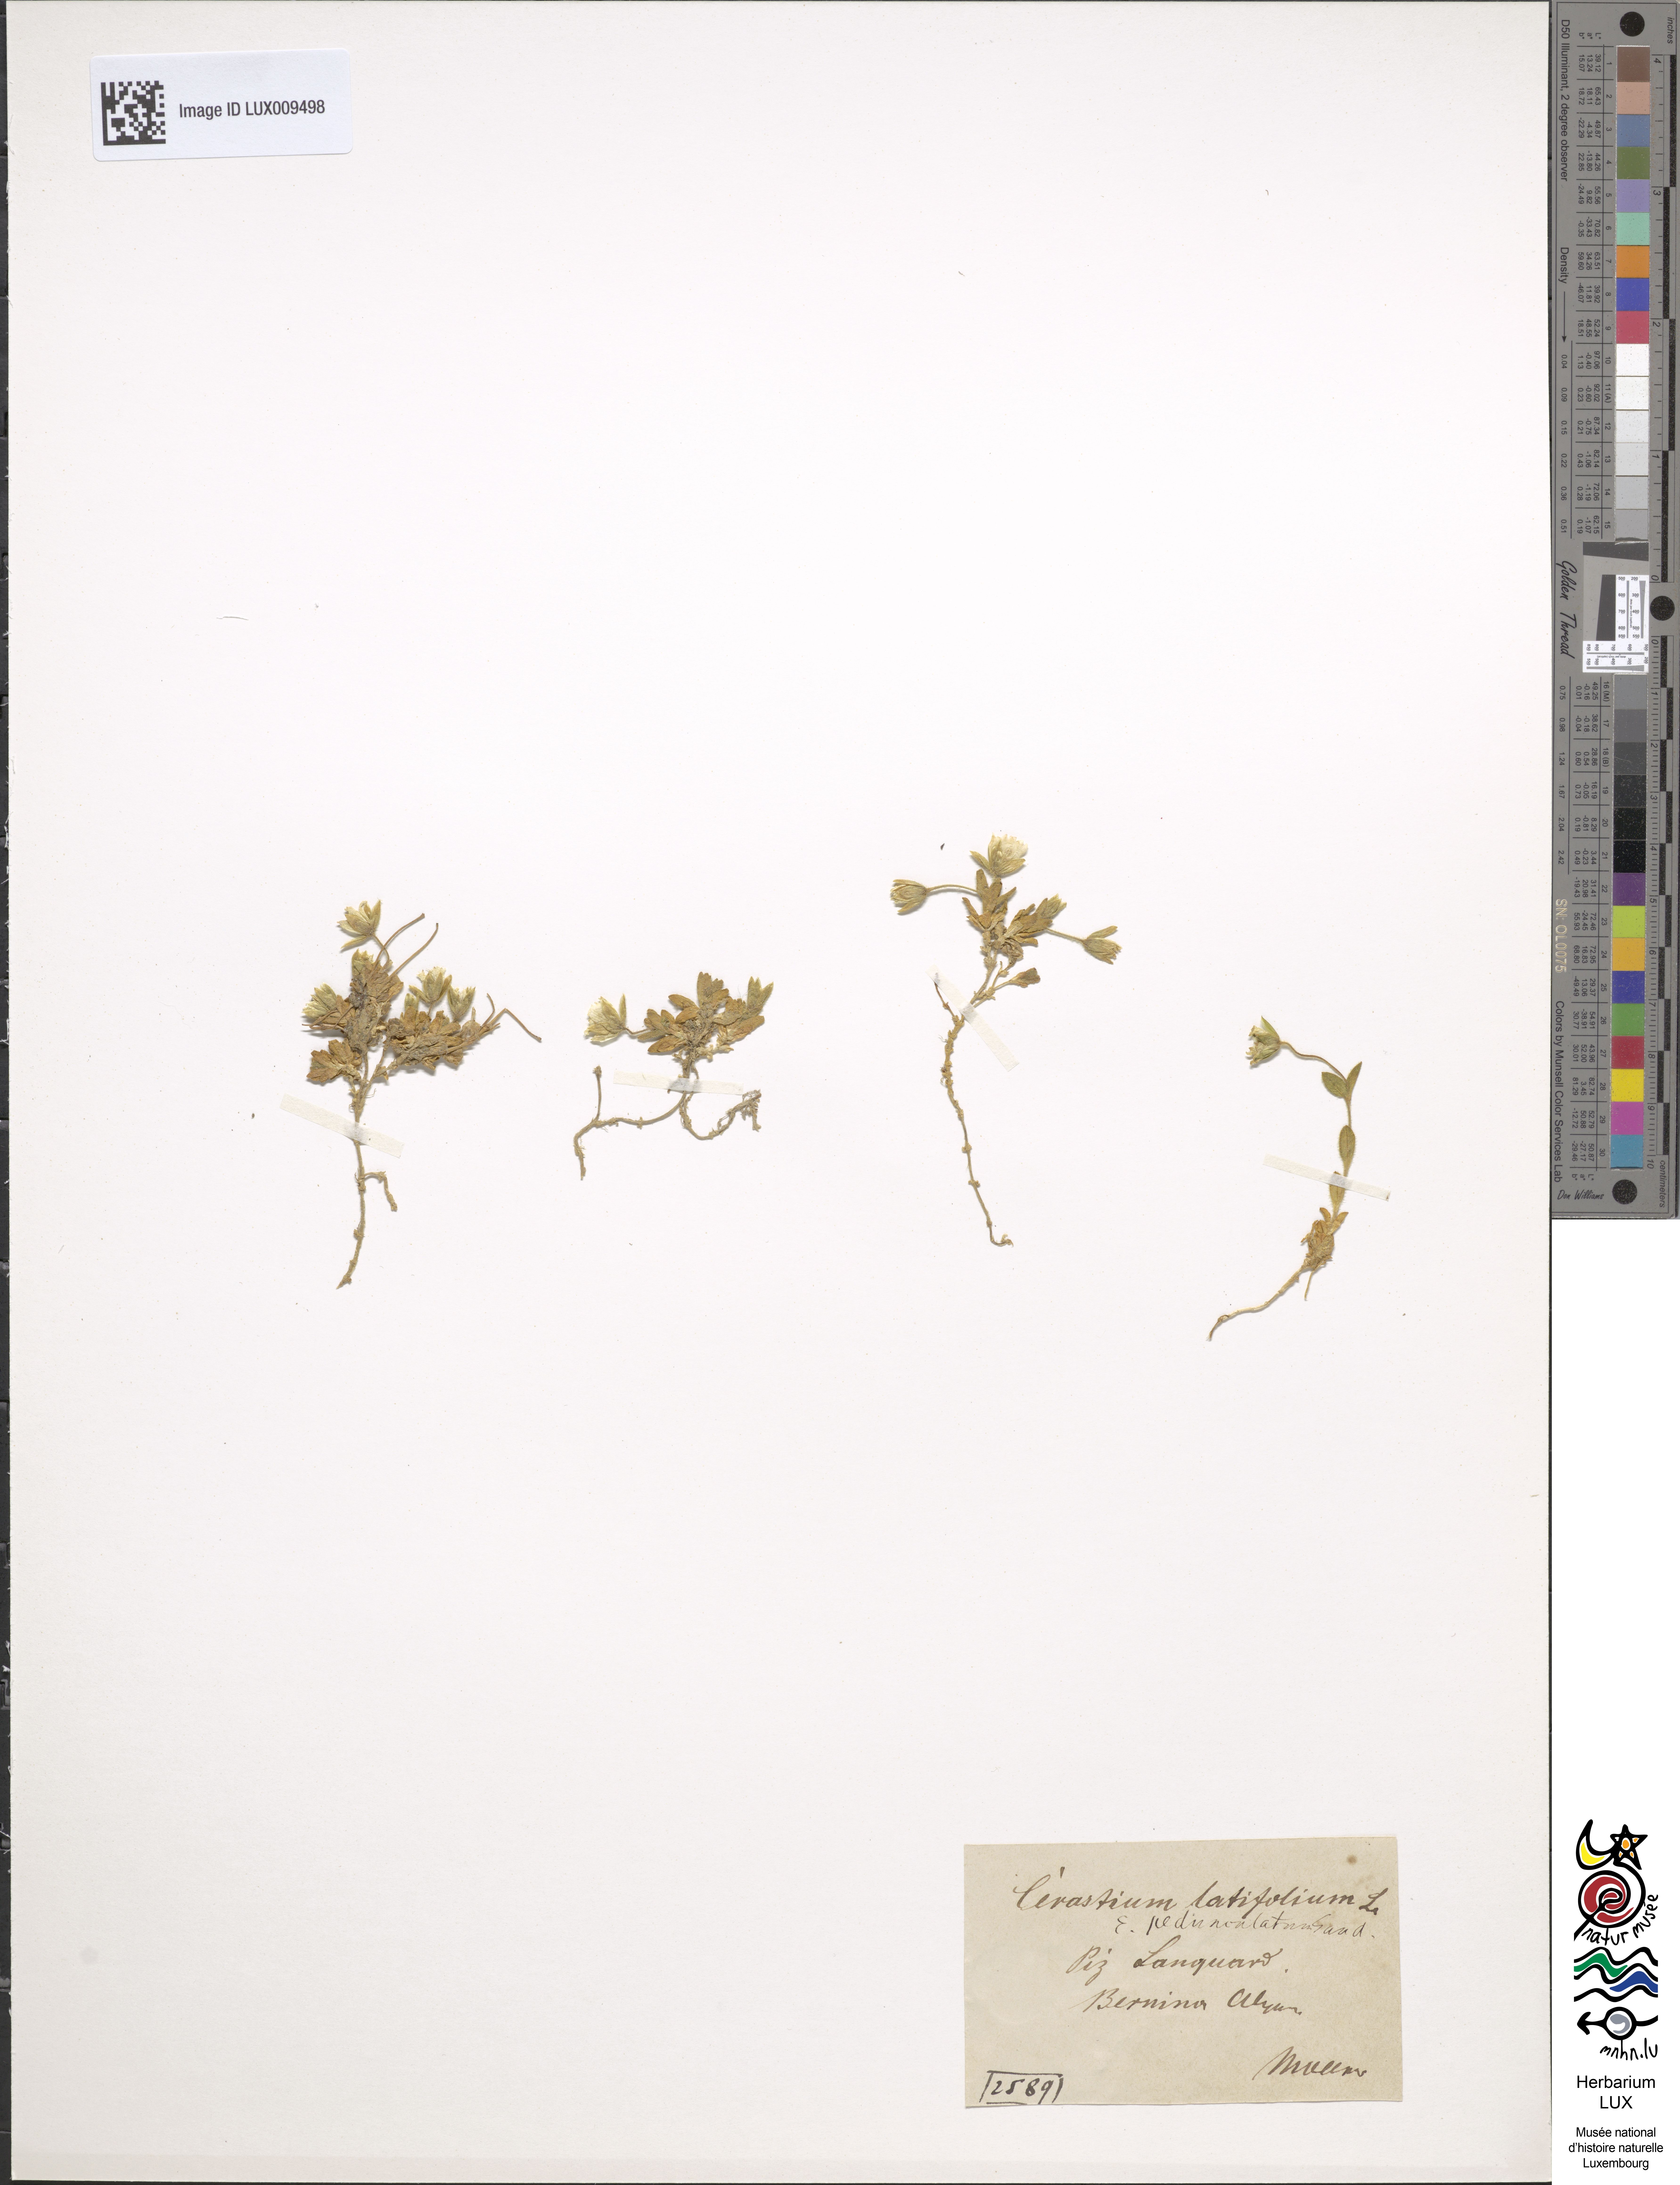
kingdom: Plantae
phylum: Tracheophyta
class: Magnoliopsida
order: Caryophyllales
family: Caryophyllaceae
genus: Cerastium
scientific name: Cerastium pedunculatum
